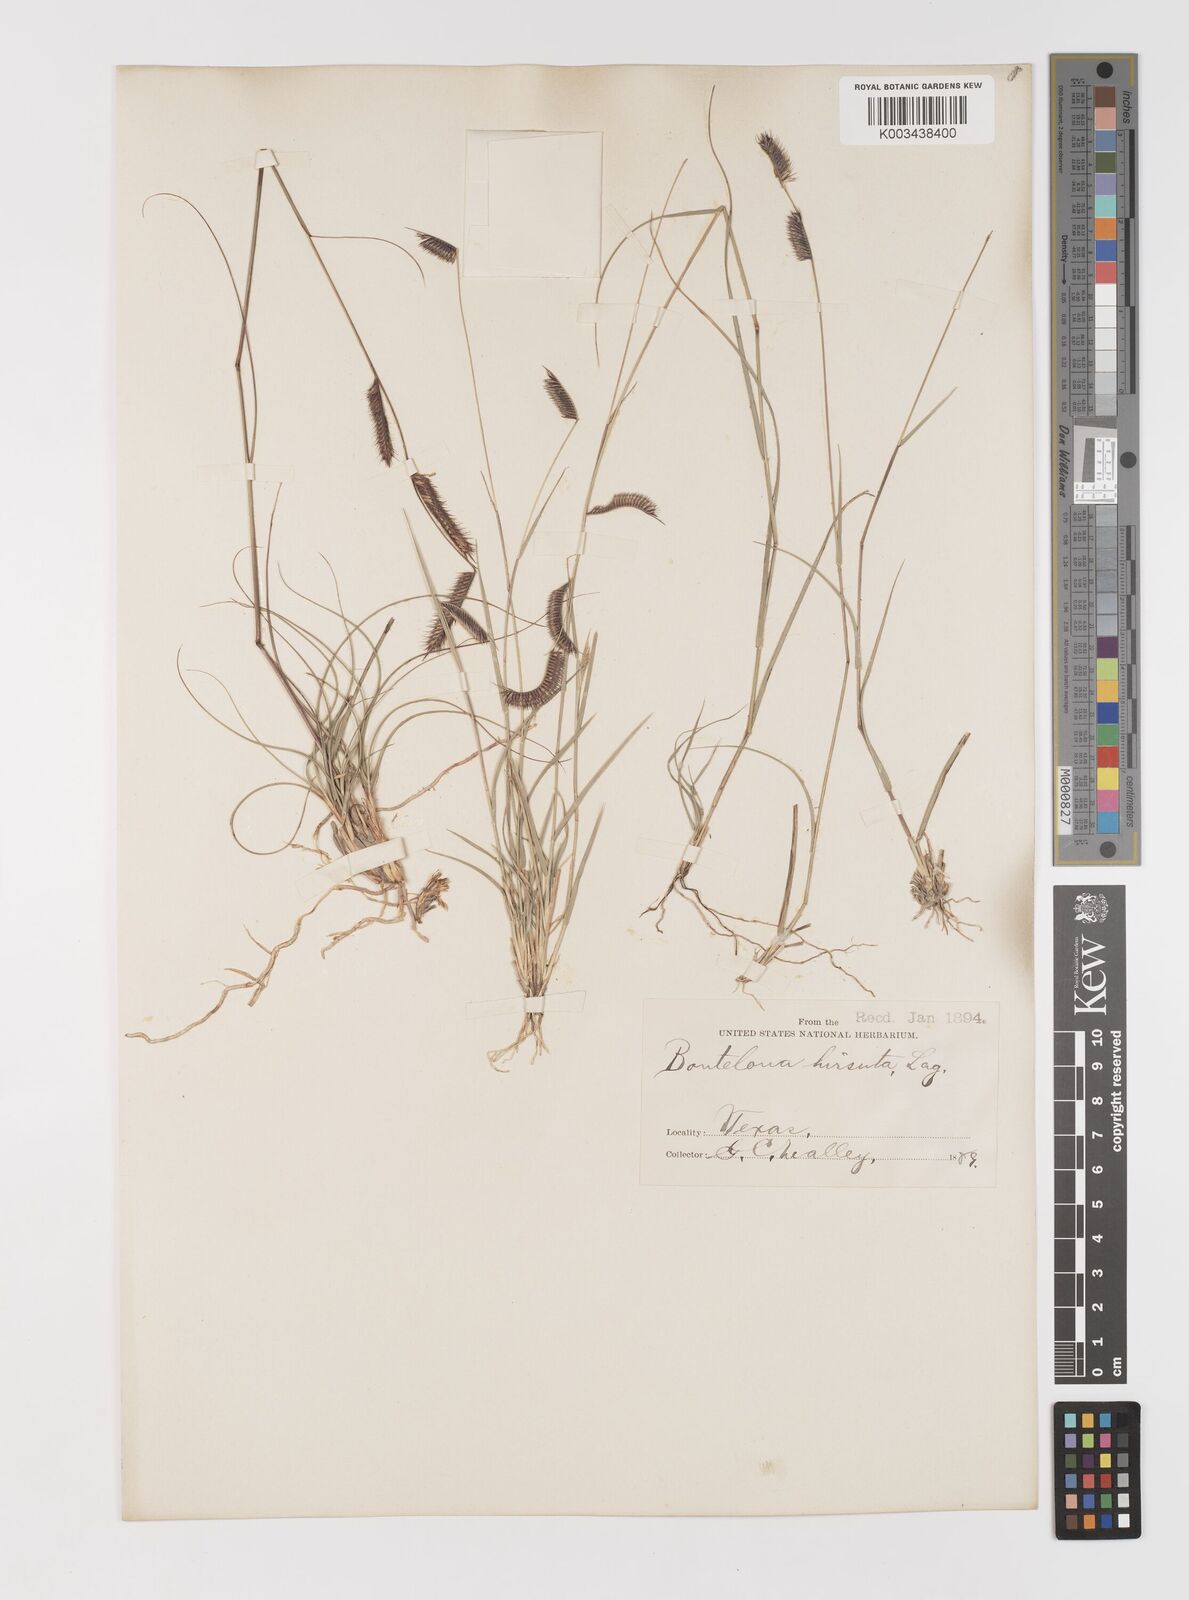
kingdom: Plantae
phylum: Tracheophyta
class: Liliopsida
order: Poales
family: Poaceae
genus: Bouteloua
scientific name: Bouteloua hirsuta
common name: Hairy grama
